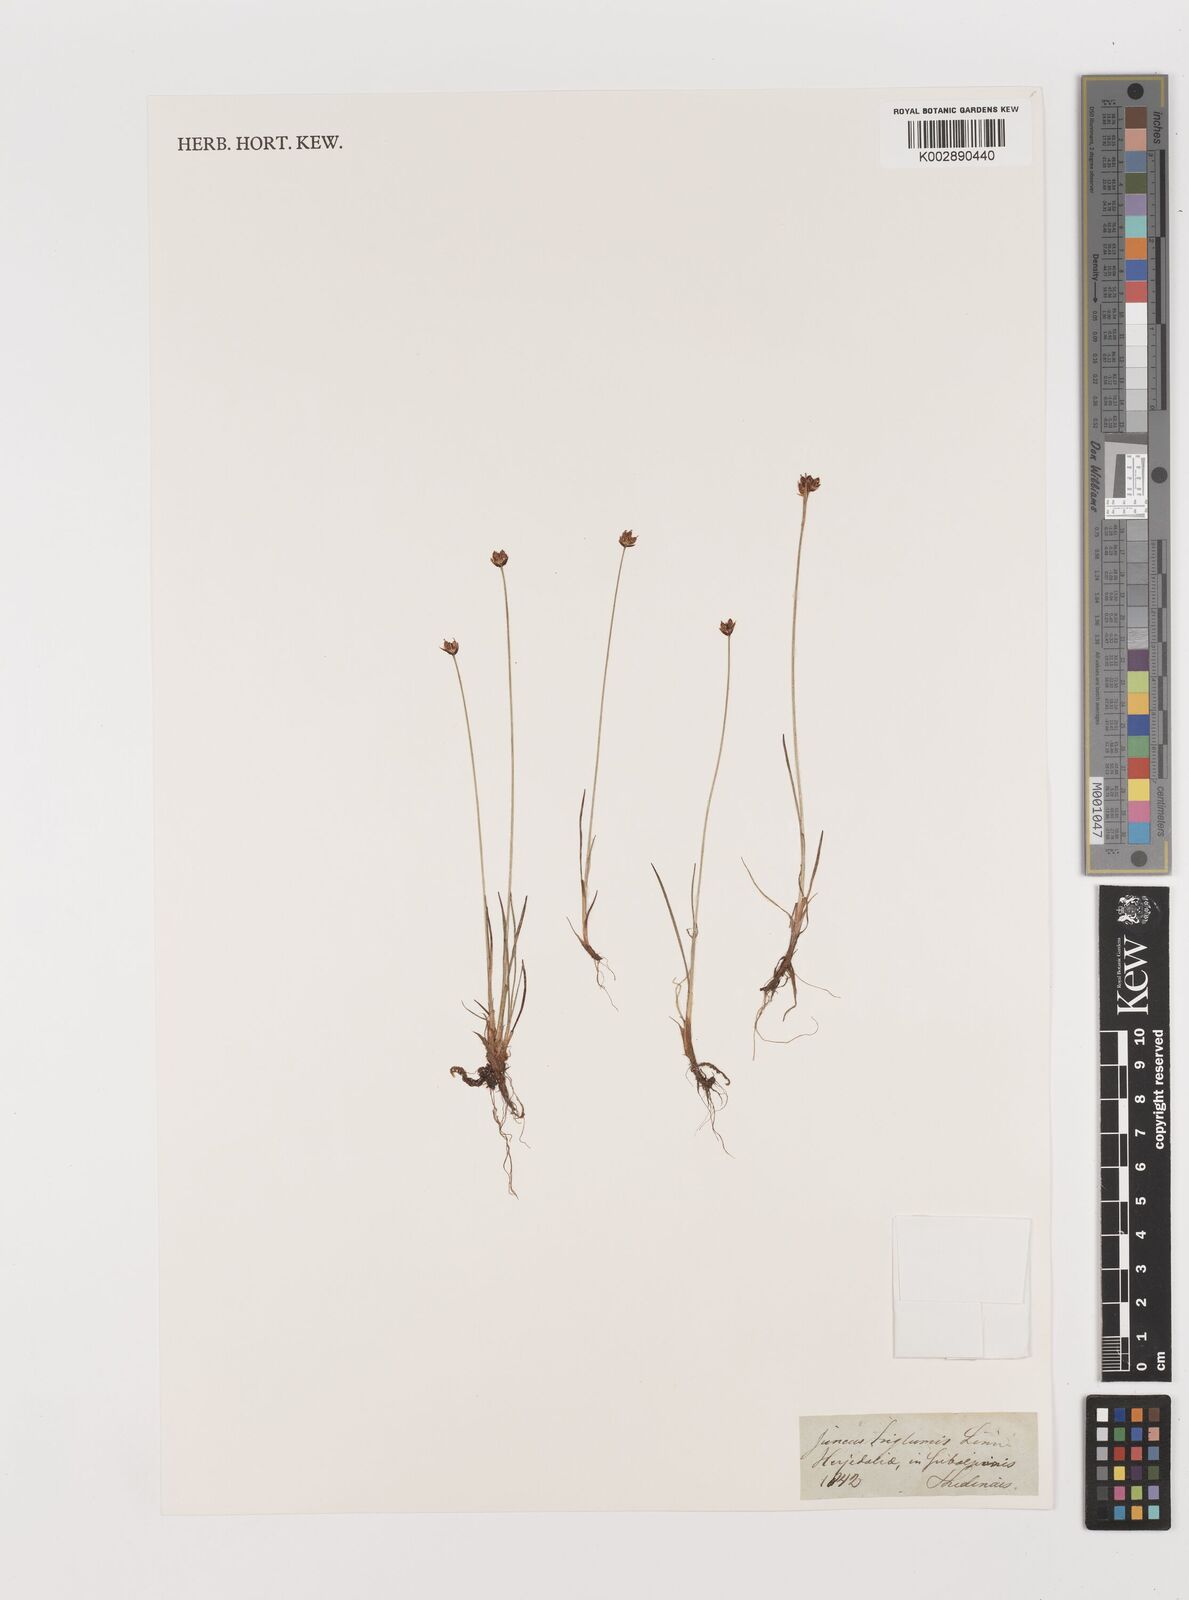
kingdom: Plantae
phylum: Tracheophyta
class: Liliopsida
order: Poales
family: Juncaceae
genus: Juncus
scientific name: Juncus triglumis
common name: Three-flowered rush
